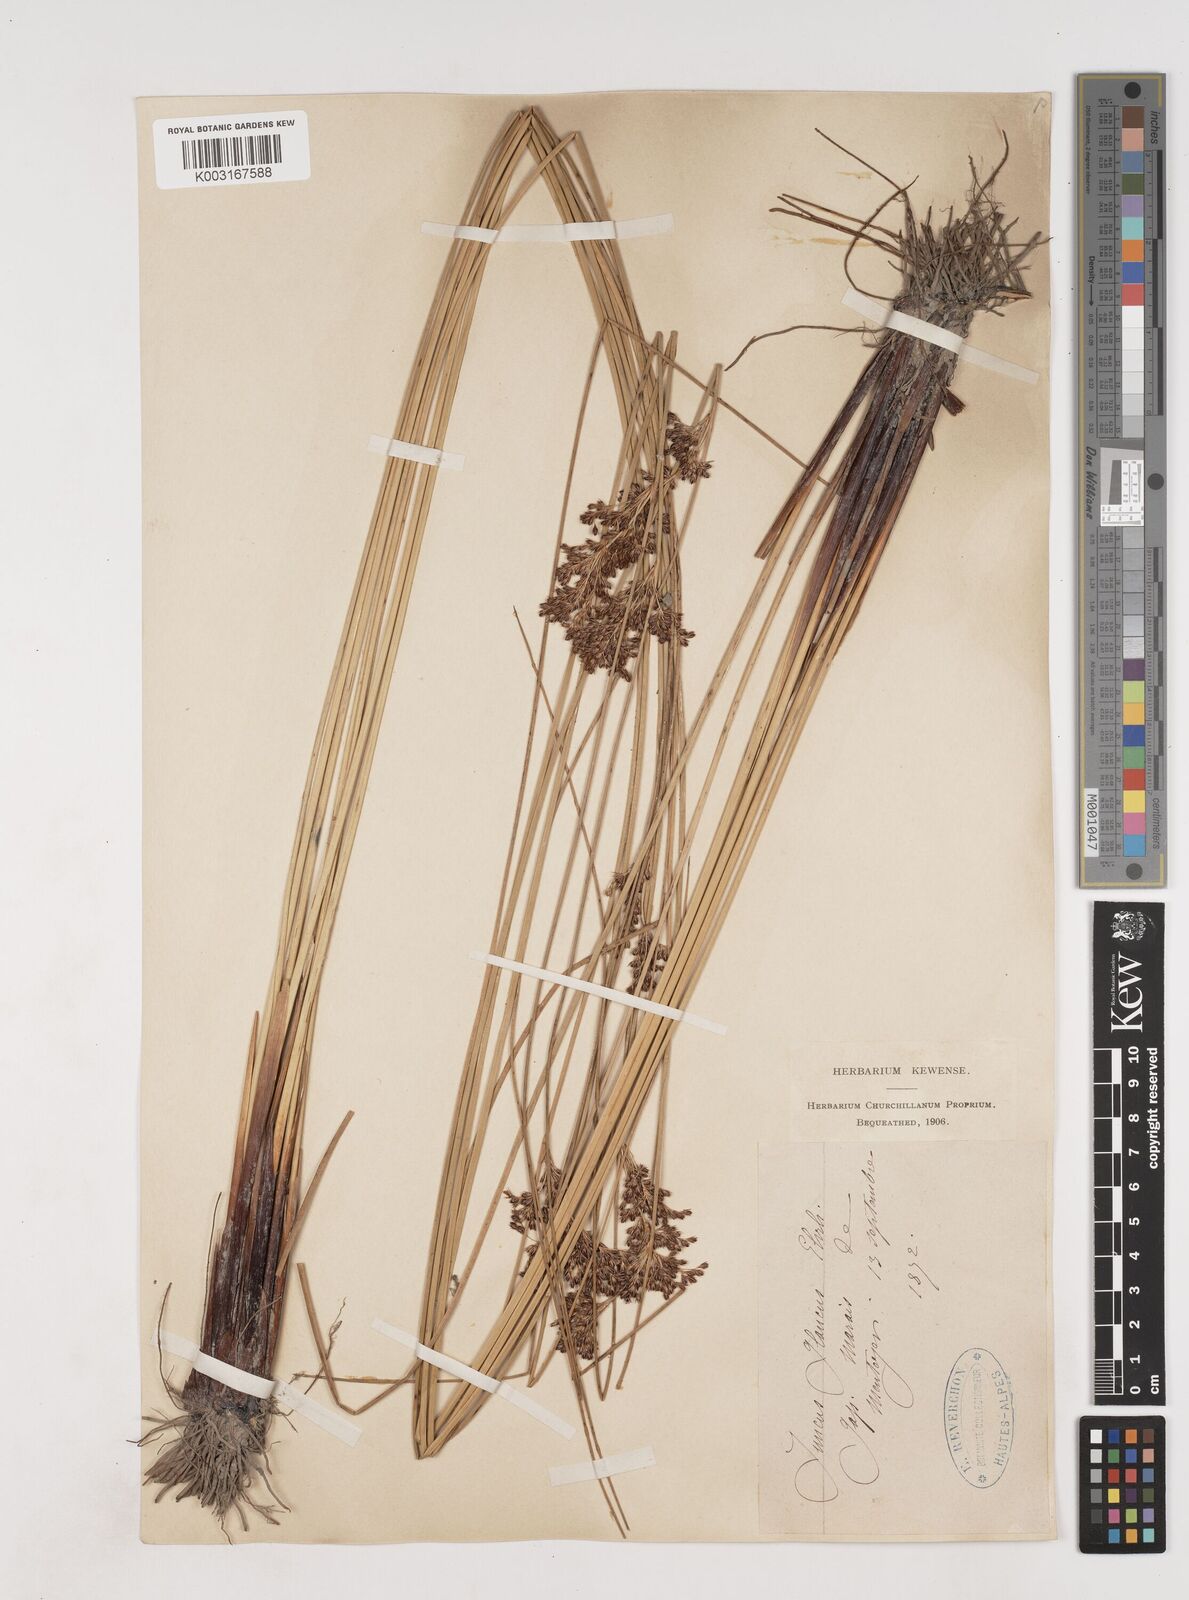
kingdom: Plantae
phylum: Tracheophyta
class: Liliopsida
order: Poales
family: Juncaceae
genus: Juncus
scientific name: Juncus inflexus
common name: Hard rush
